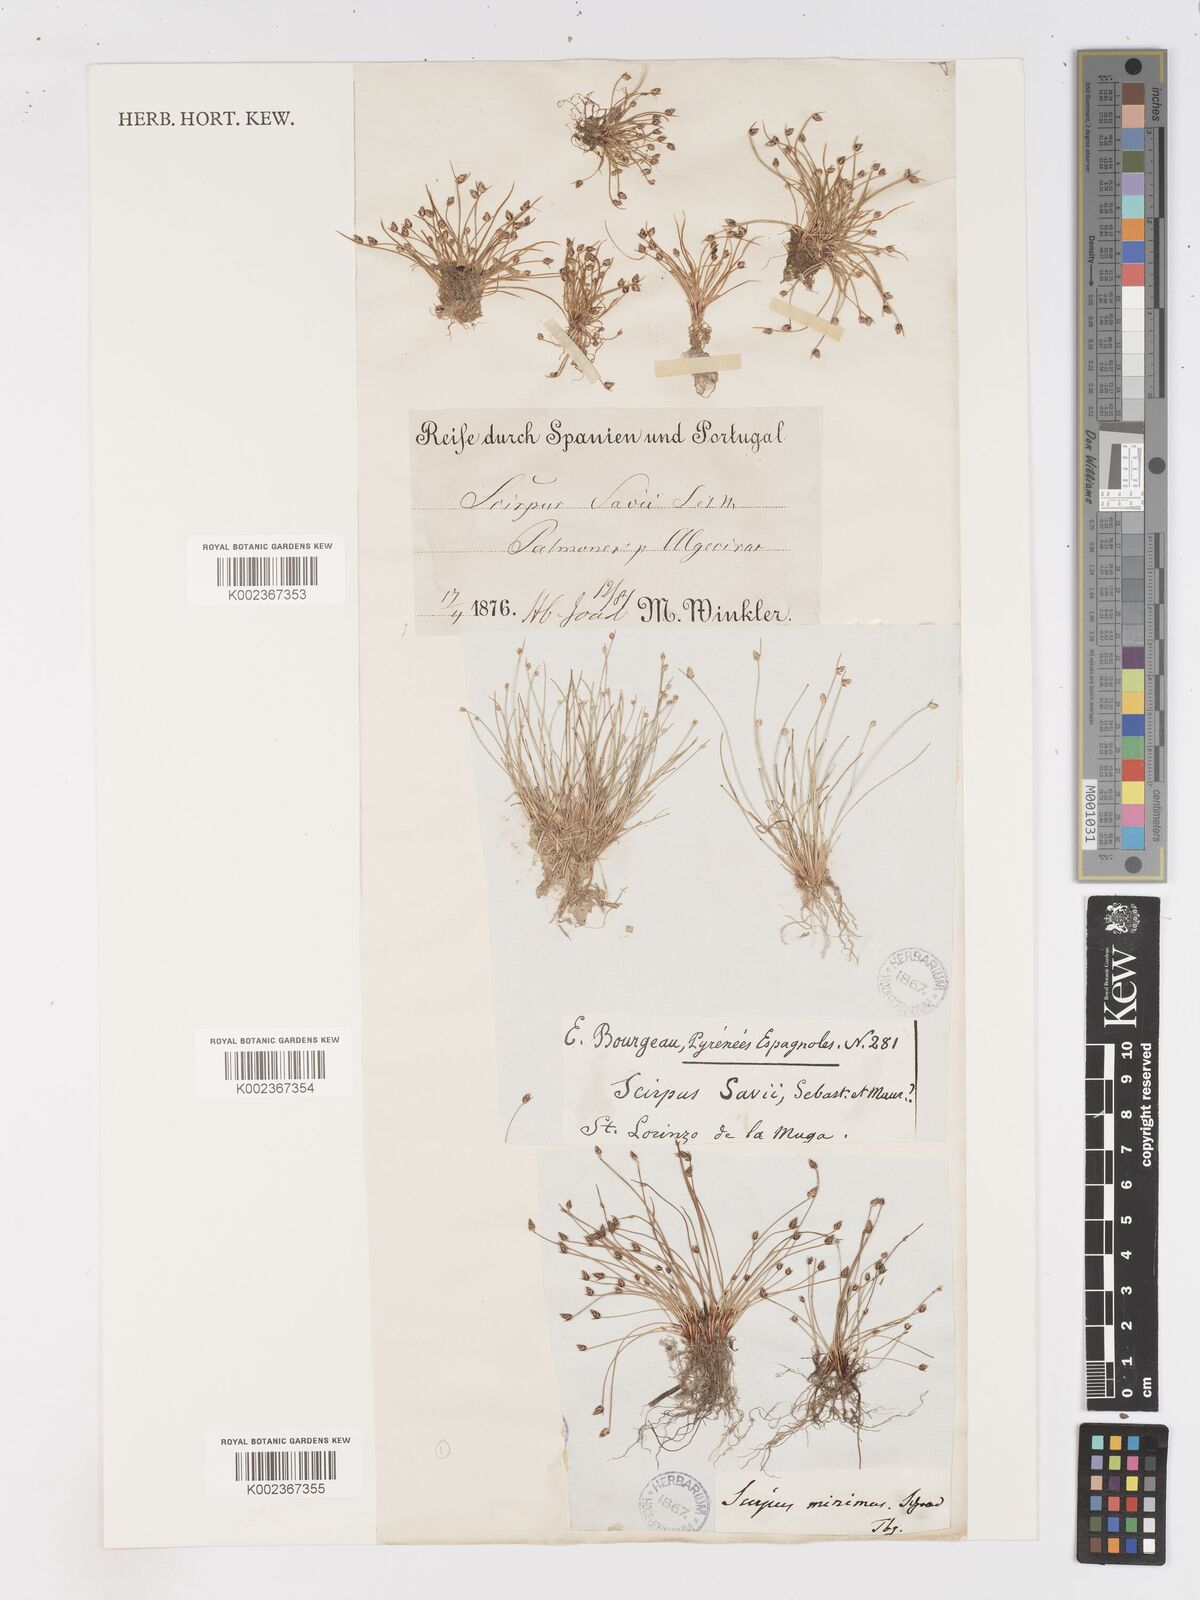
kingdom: Plantae
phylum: Tracheophyta
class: Liliopsida
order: Poales
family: Cyperaceae
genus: Isolepis
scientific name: Isolepis cernua
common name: Slender club-rush
